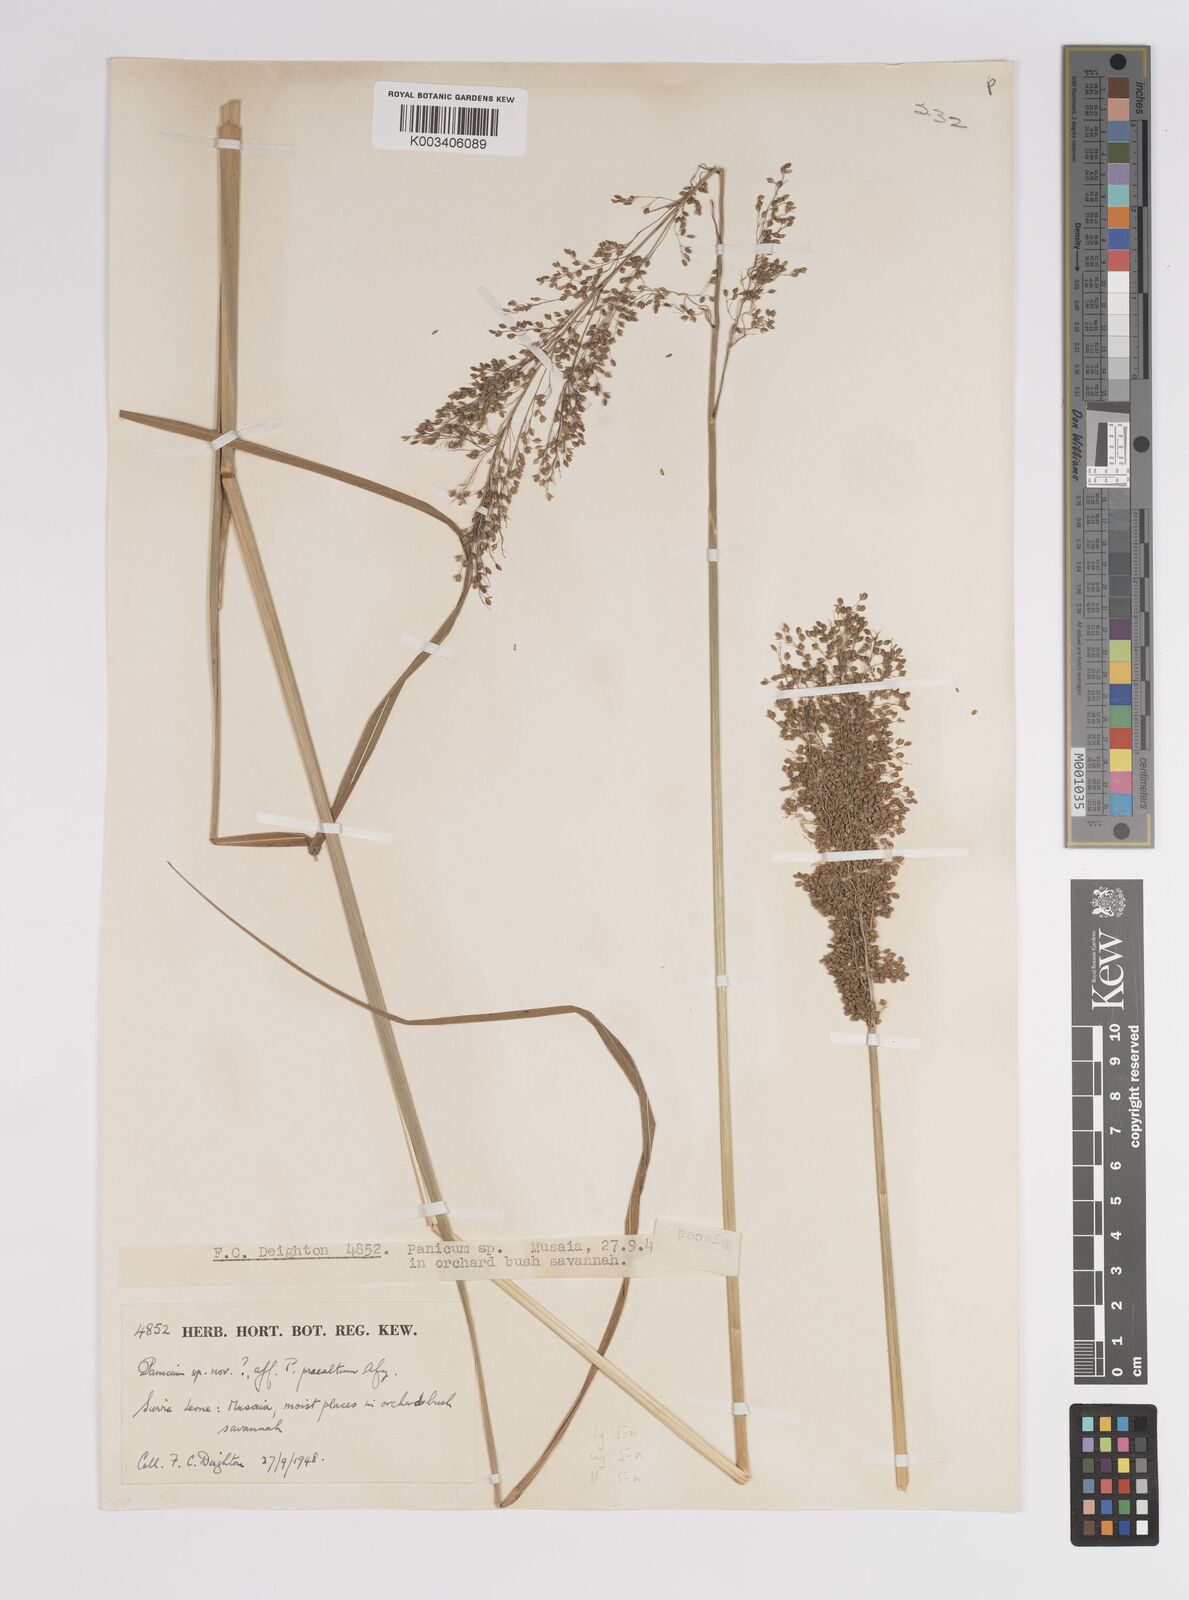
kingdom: Plantae
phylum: Tracheophyta
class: Liliopsida
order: Poales
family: Poaceae
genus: Trichanthecium
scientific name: Trichanthecium praealtum
